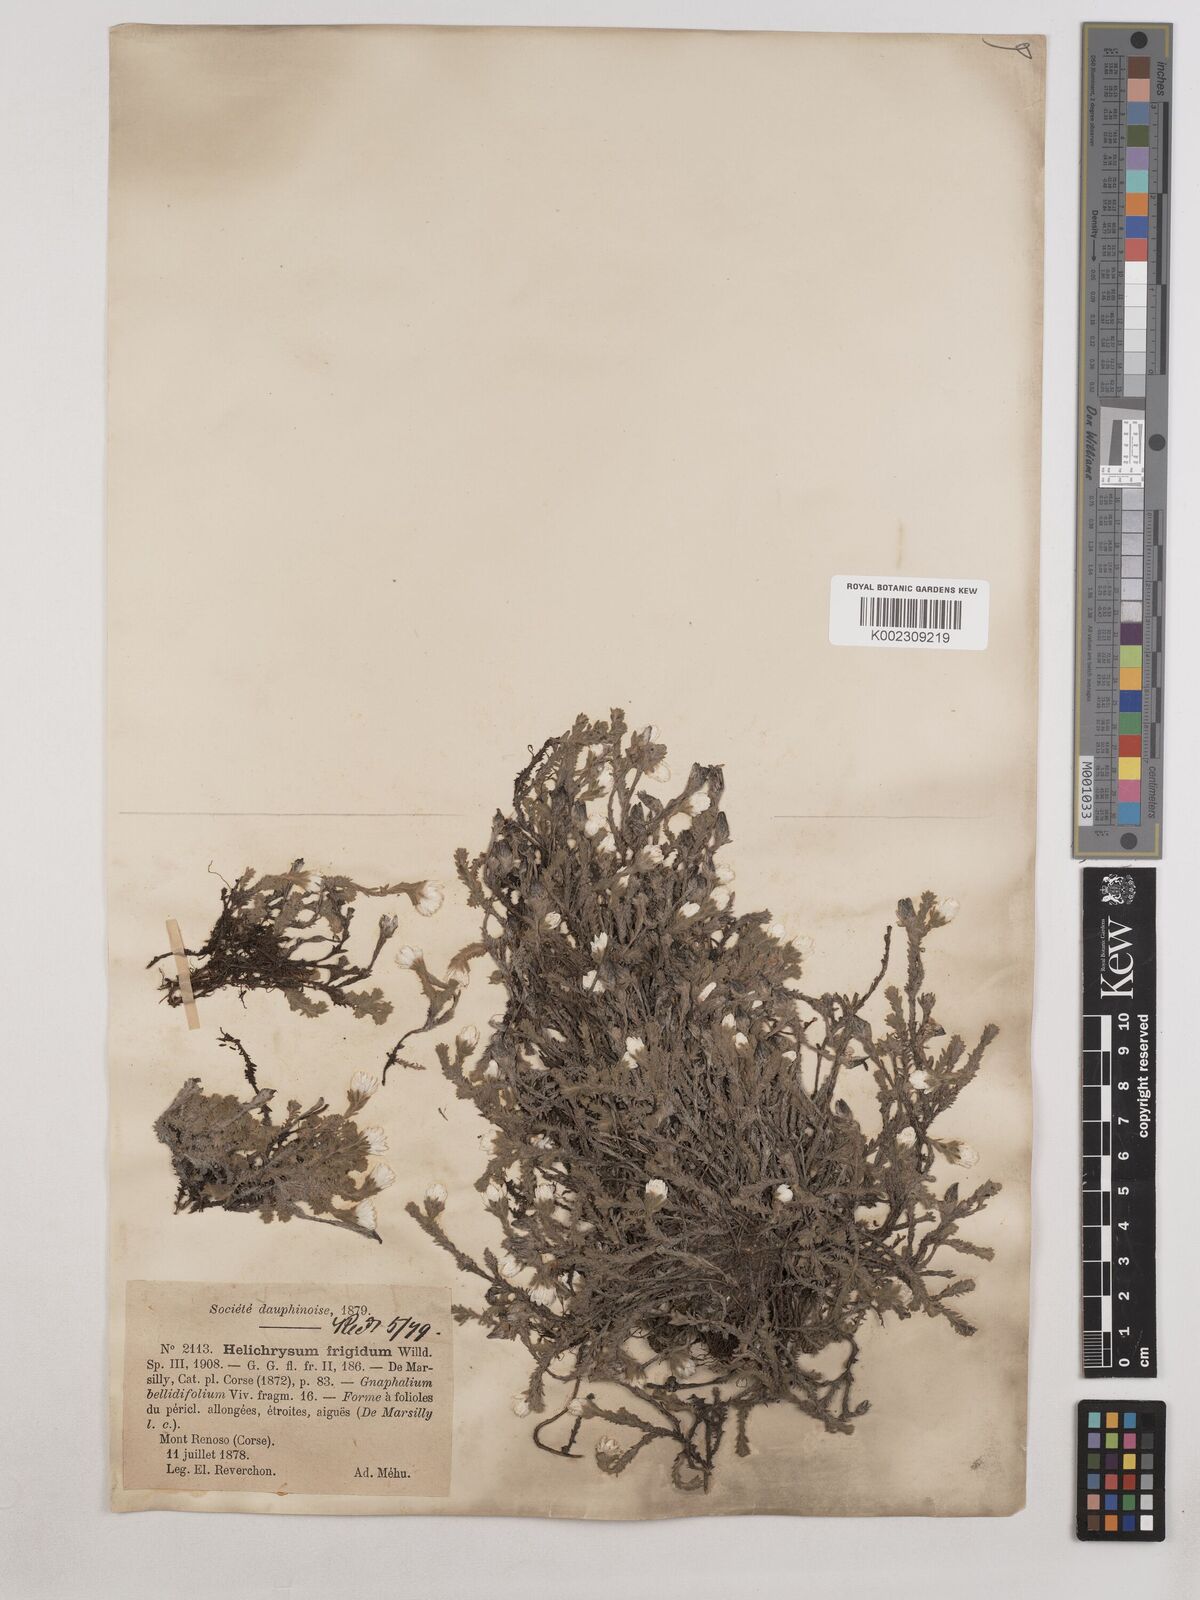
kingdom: Plantae
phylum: Tracheophyta
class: Magnoliopsida
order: Asterales
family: Asteraceae
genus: Castroviejoa
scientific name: Castroviejoa frigida
